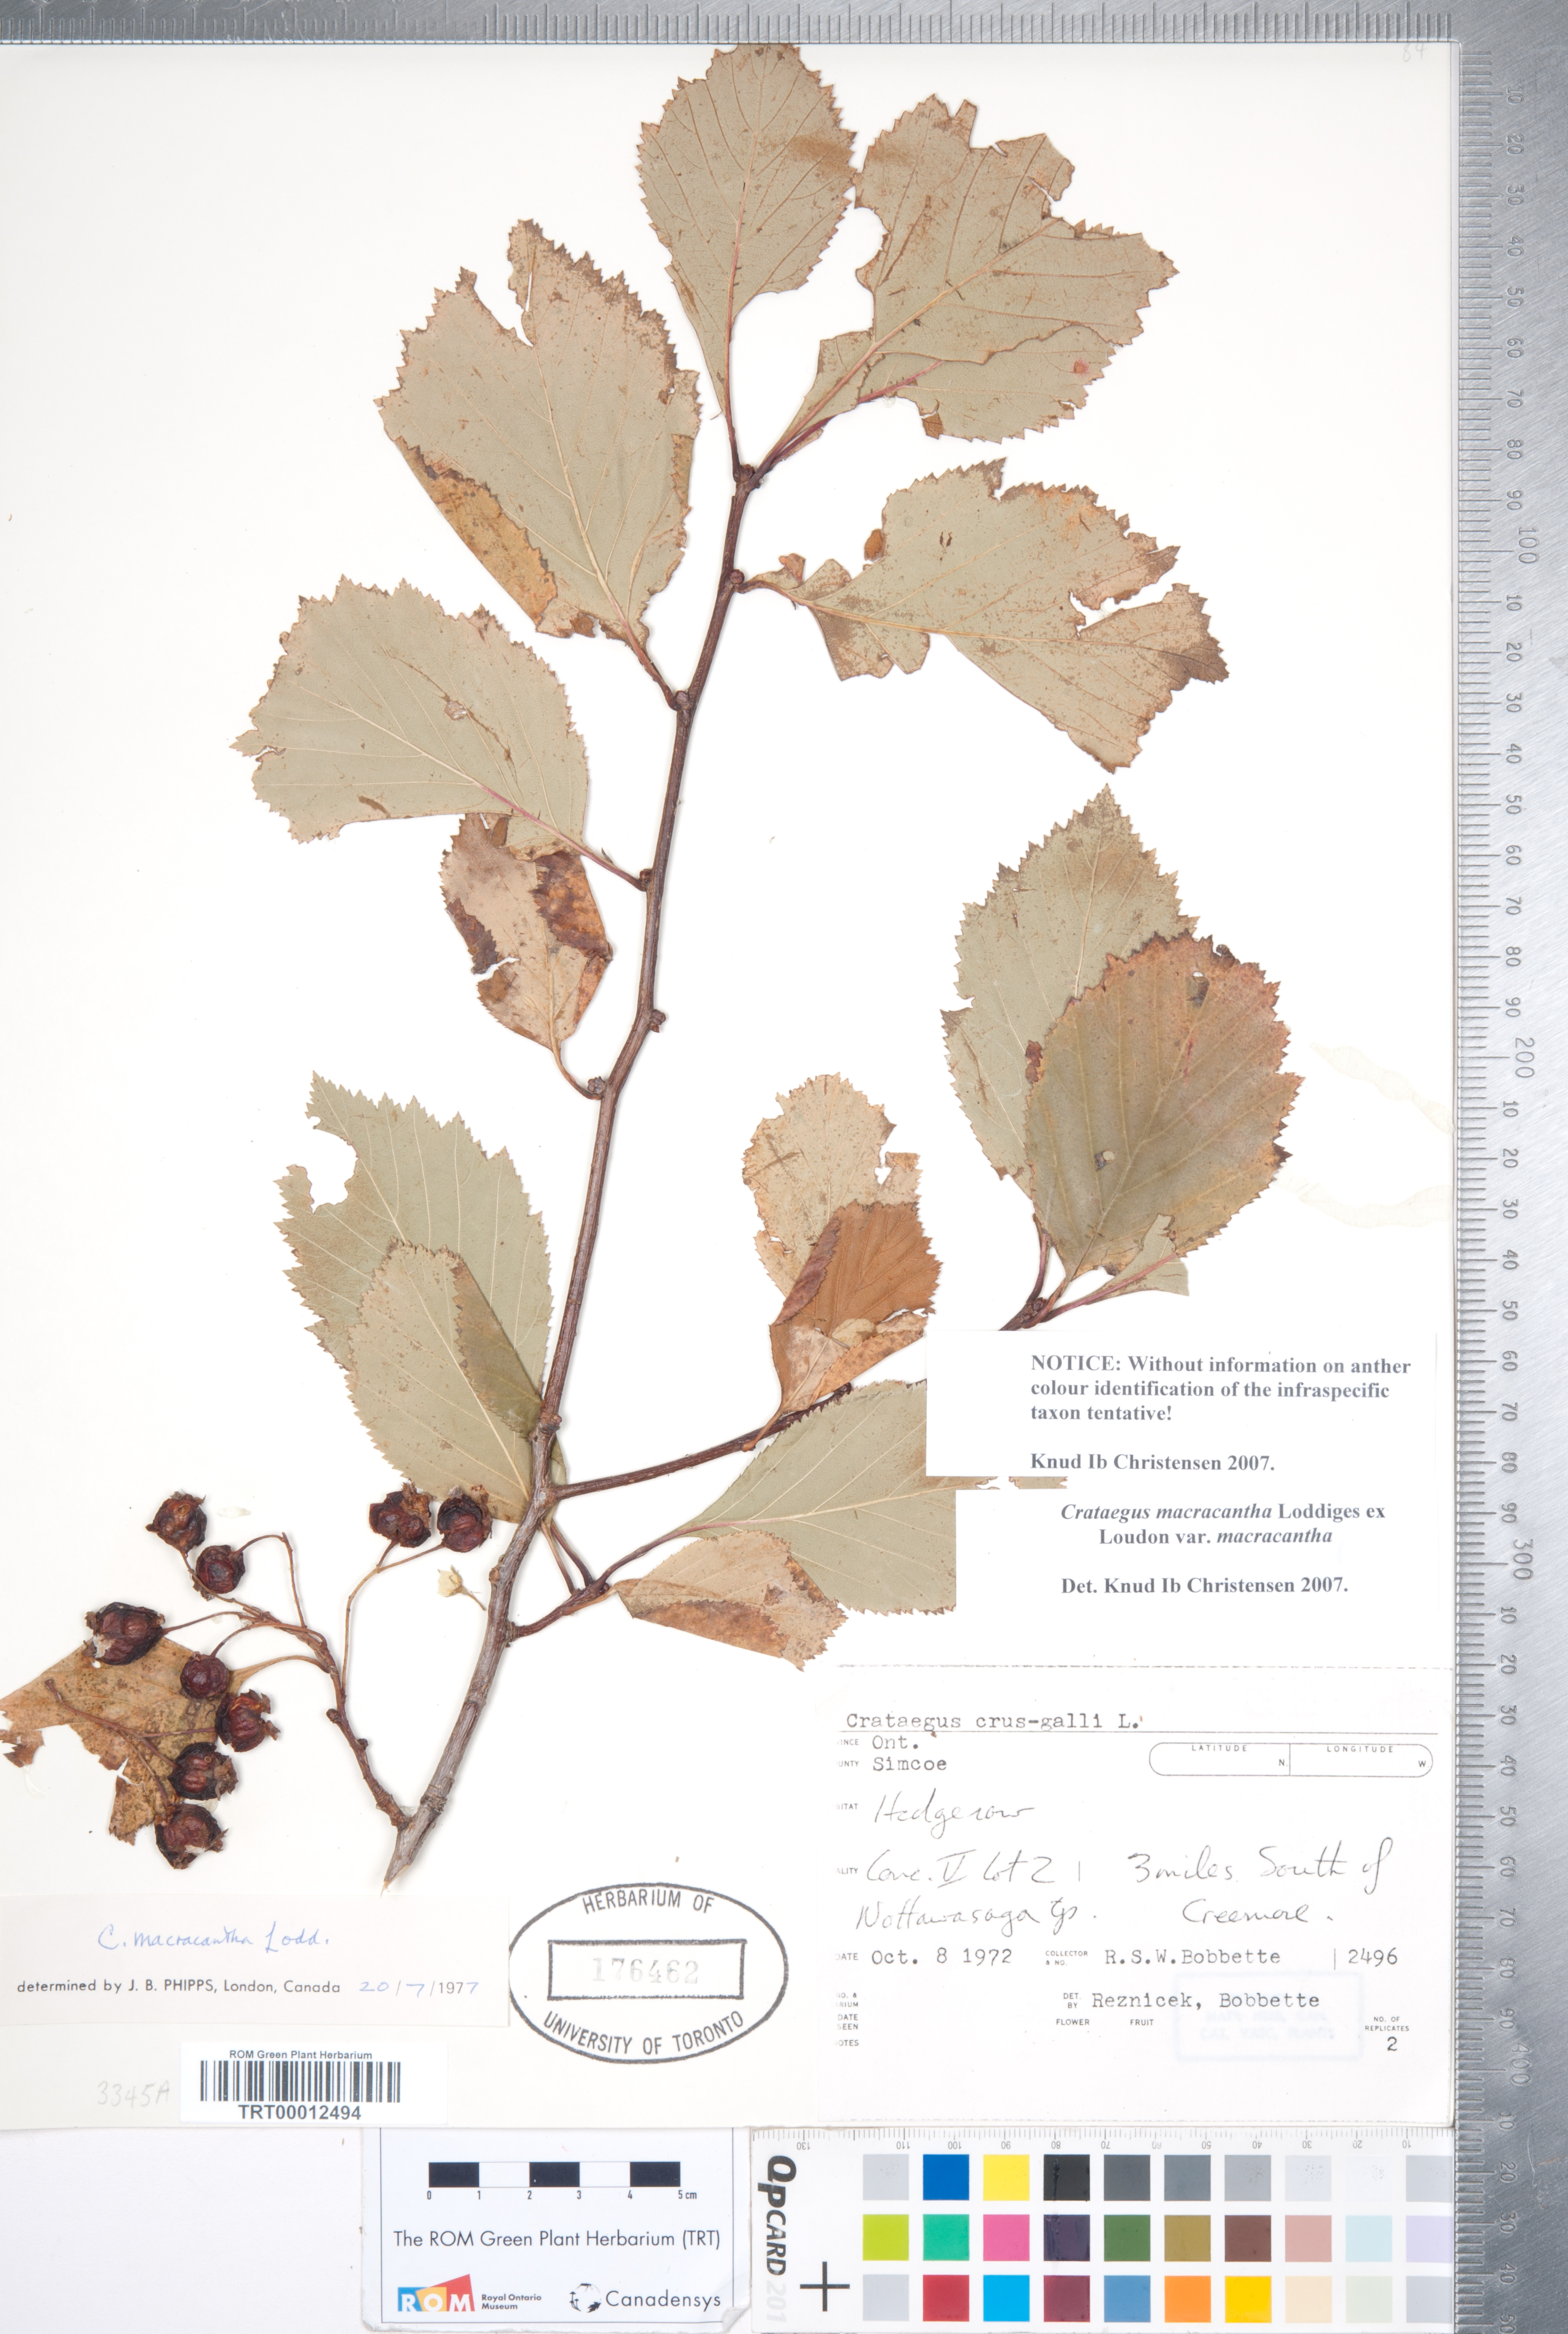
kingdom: Plantae
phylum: Tracheophyta
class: Magnoliopsida
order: Rosales
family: Rosaceae
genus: Crataegus
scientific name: Crataegus macracantha
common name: Large-thorn hawthorn
